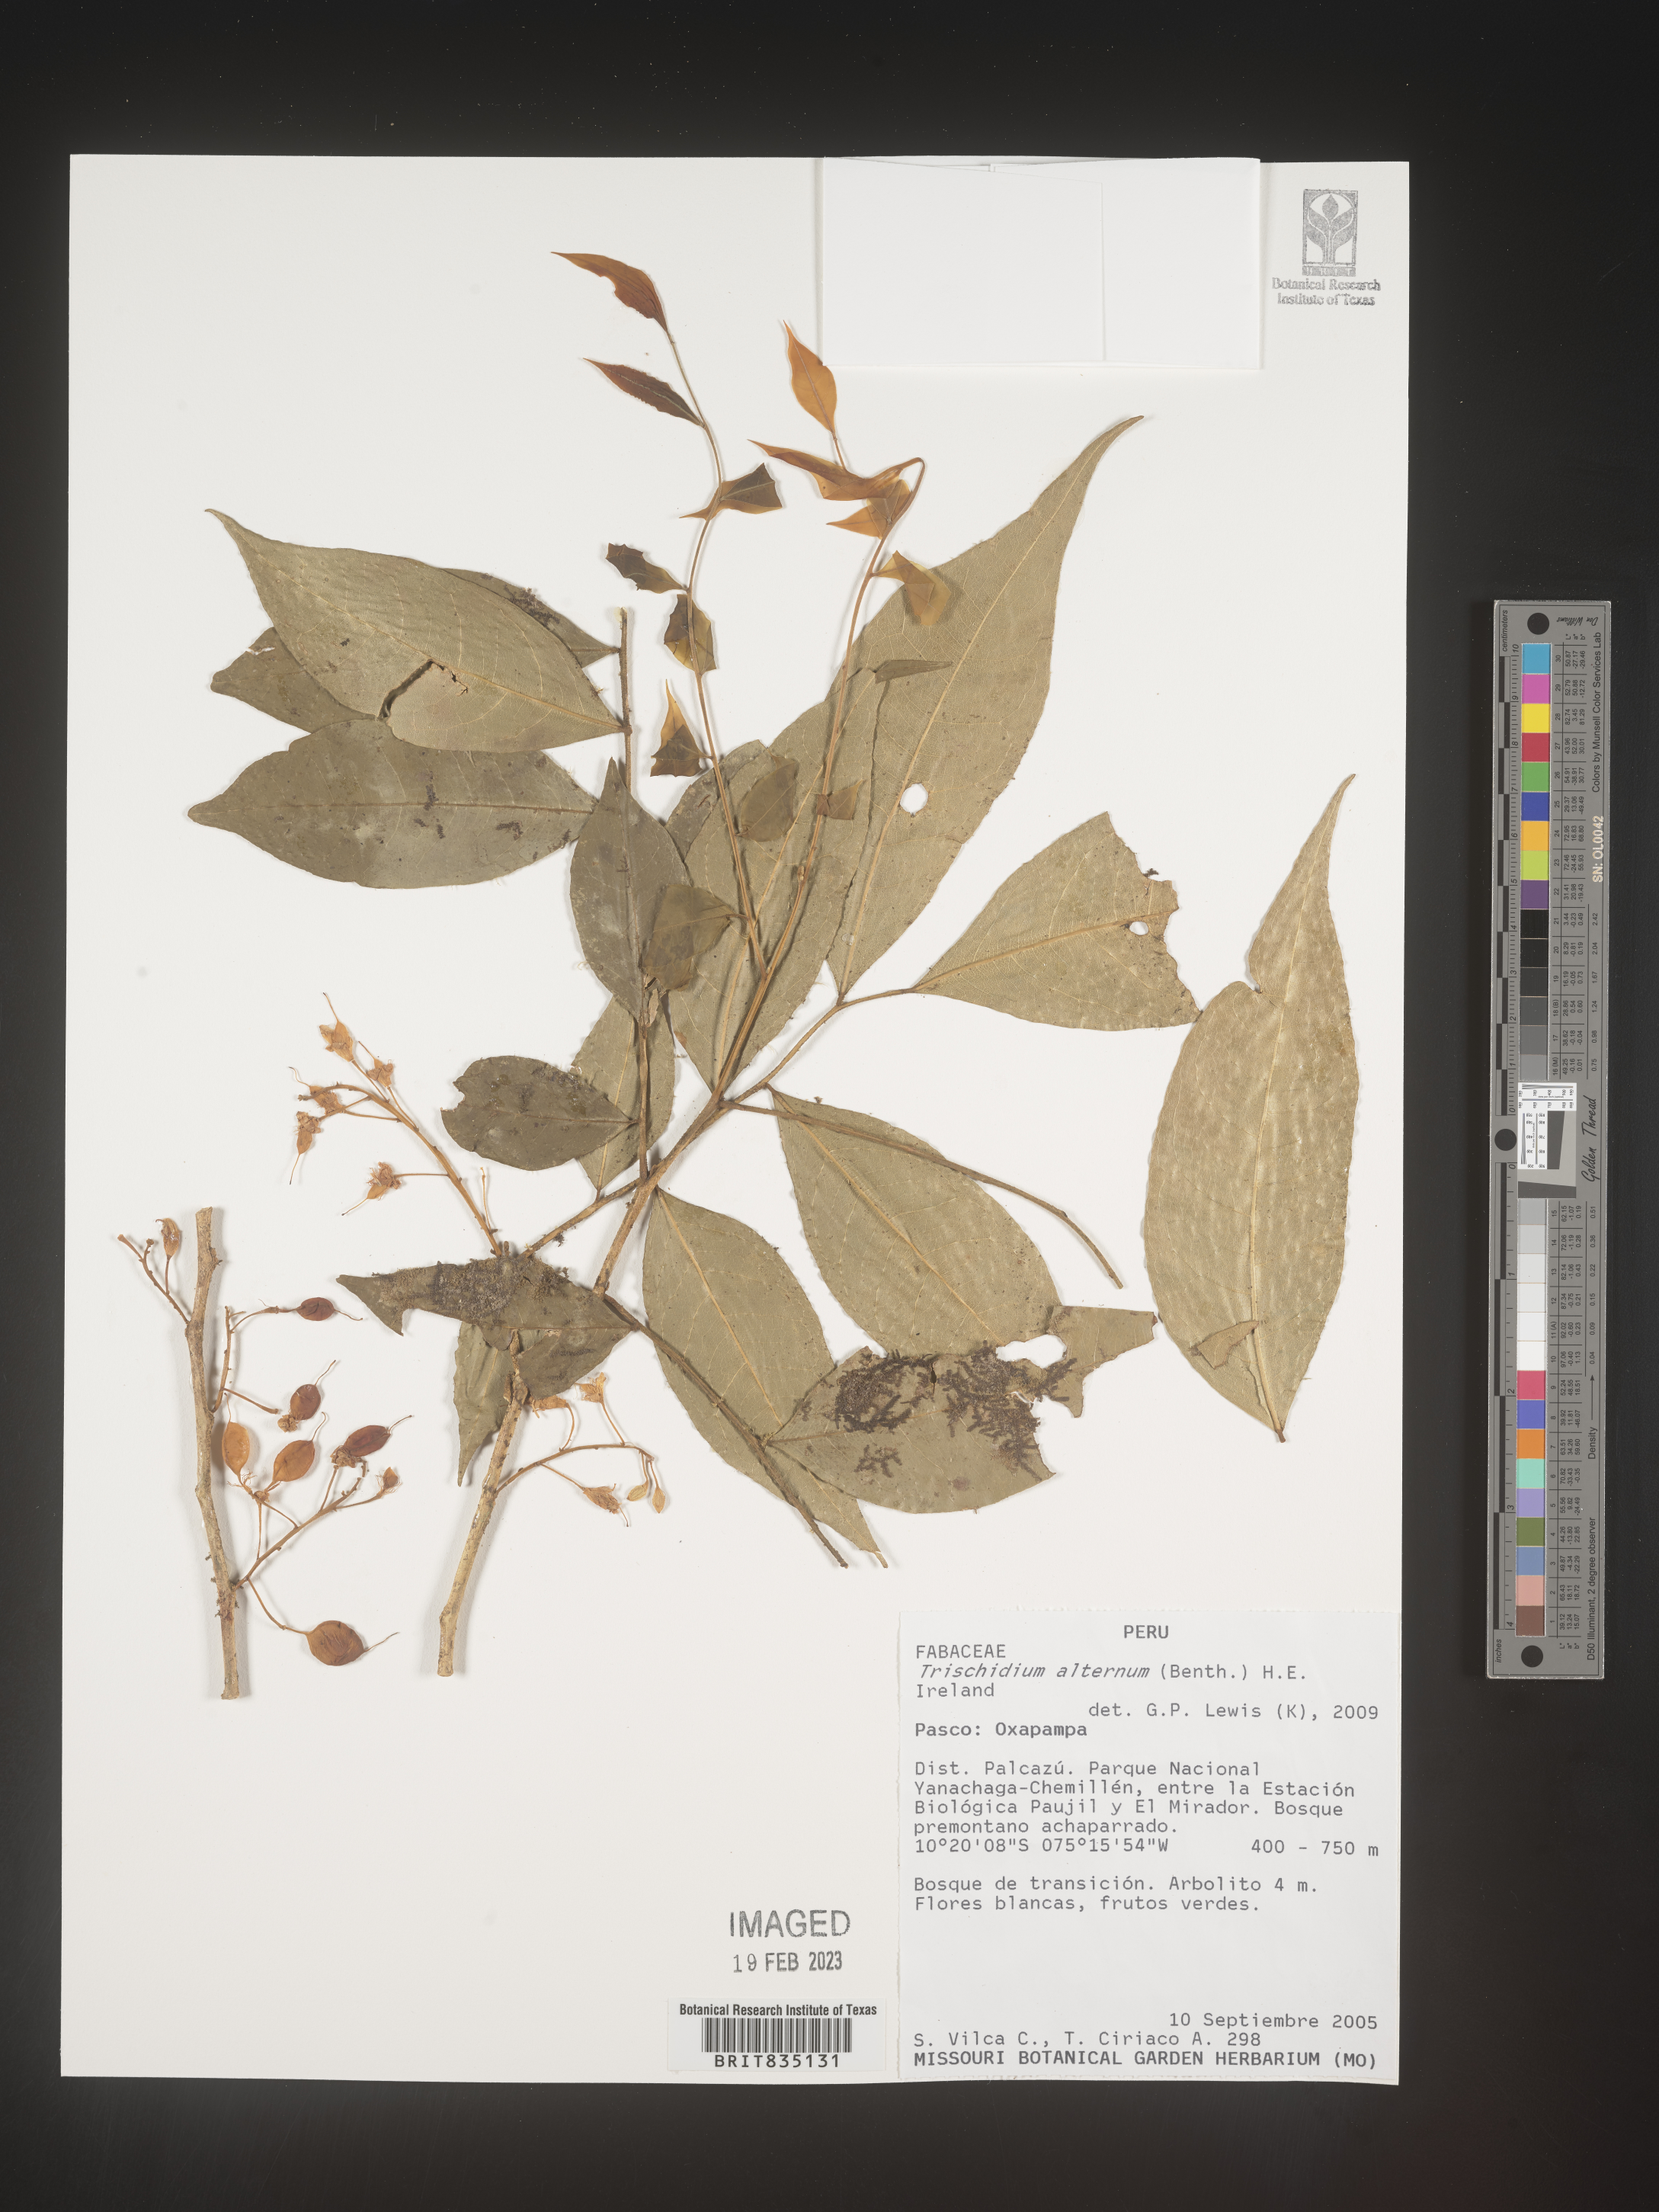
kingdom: Plantae
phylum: Tracheophyta
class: Magnoliopsida
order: Fabales
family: Fabaceae
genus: Trischidium
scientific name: Trischidium
